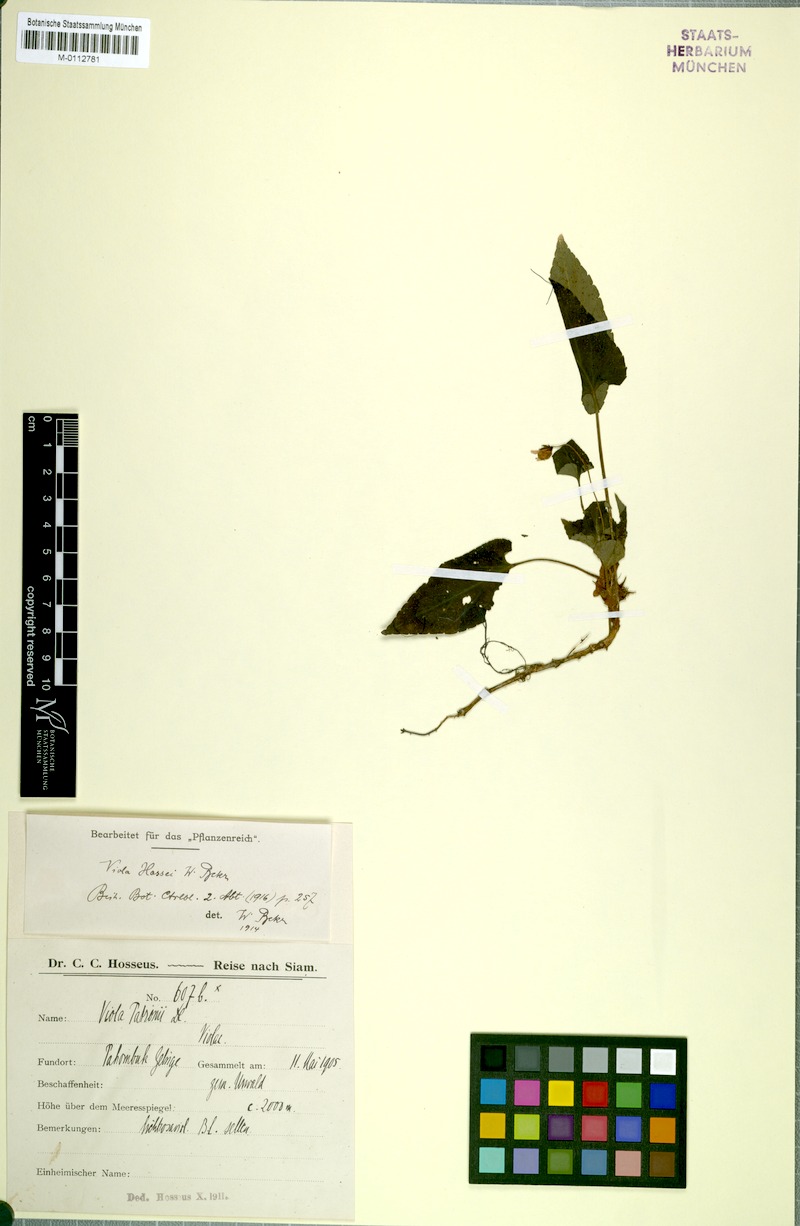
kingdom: Plantae
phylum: Tracheophyta
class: Magnoliopsida
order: Malpighiales
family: Violaceae
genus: Viola
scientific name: Viola sumatrana
